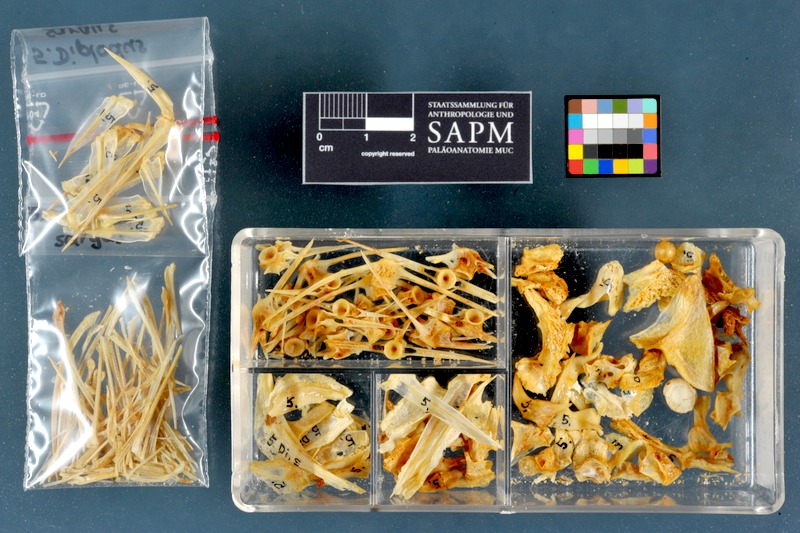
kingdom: Animalia
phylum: Chordata
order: Perciformes
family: Sparidae
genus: Diplodus
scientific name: Diplodus sargus
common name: White seabream
